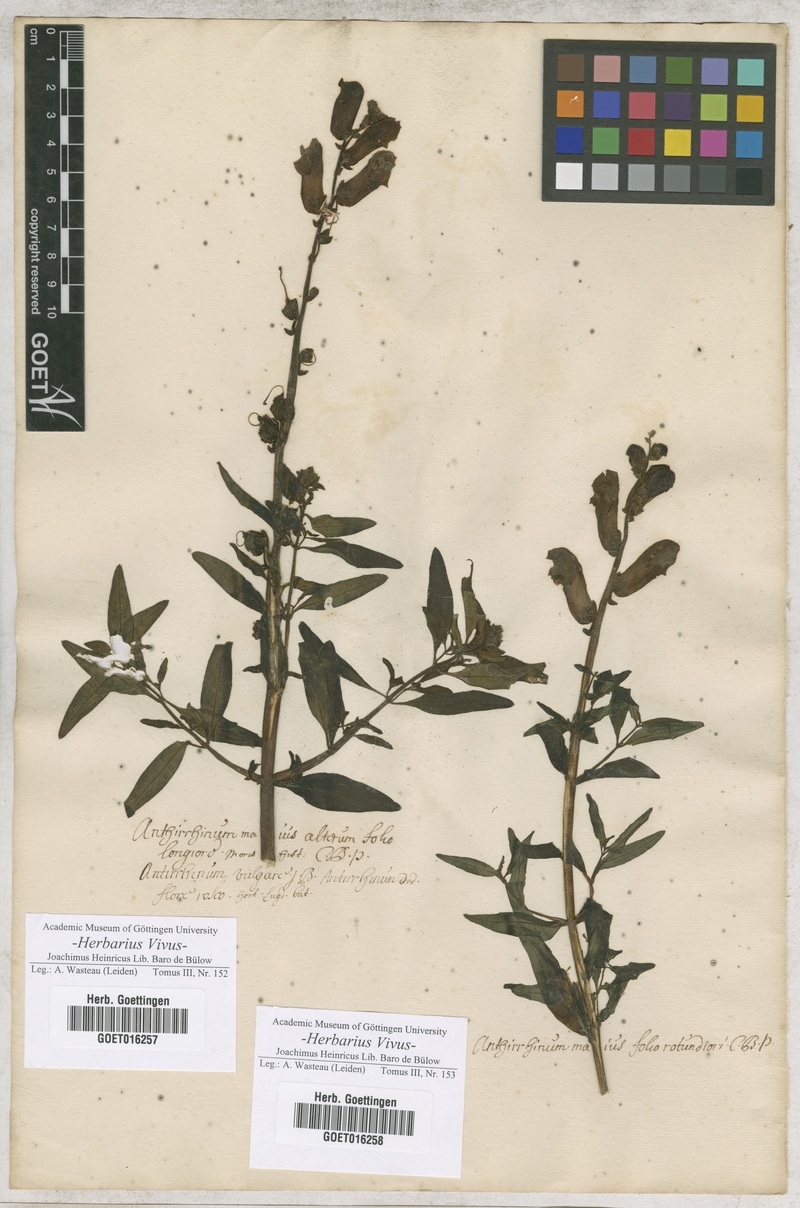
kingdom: Plantae
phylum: Tracheophyta
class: Magnoliopsida
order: Lamiales
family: Plantaginaceae
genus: Antirrhinum
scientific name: Antirrhinum majus
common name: Snapdragon
